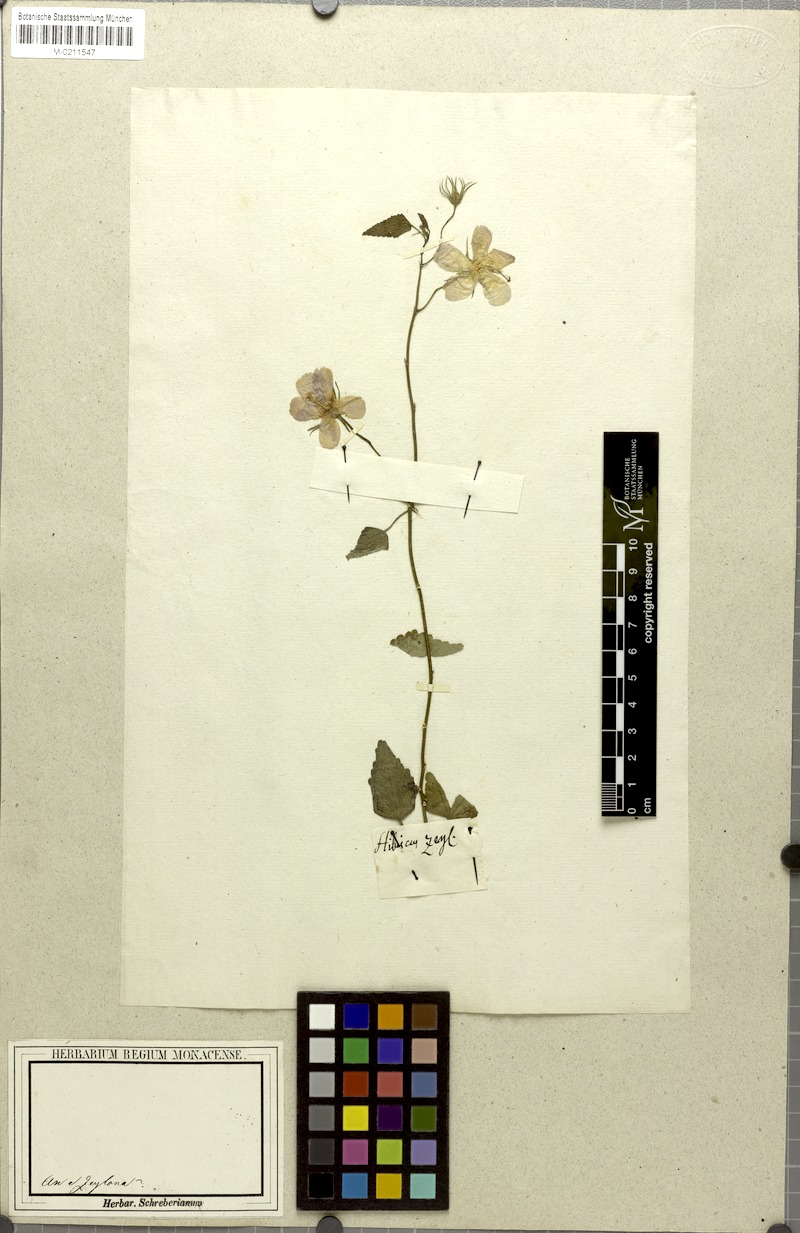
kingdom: Plantae
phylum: Tracheophyta
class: Magnoliopsida
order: Malvales
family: Malvaceae
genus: Hibiscus
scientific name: Hibiscus phoeniceus
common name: Brazilian rosemallow
